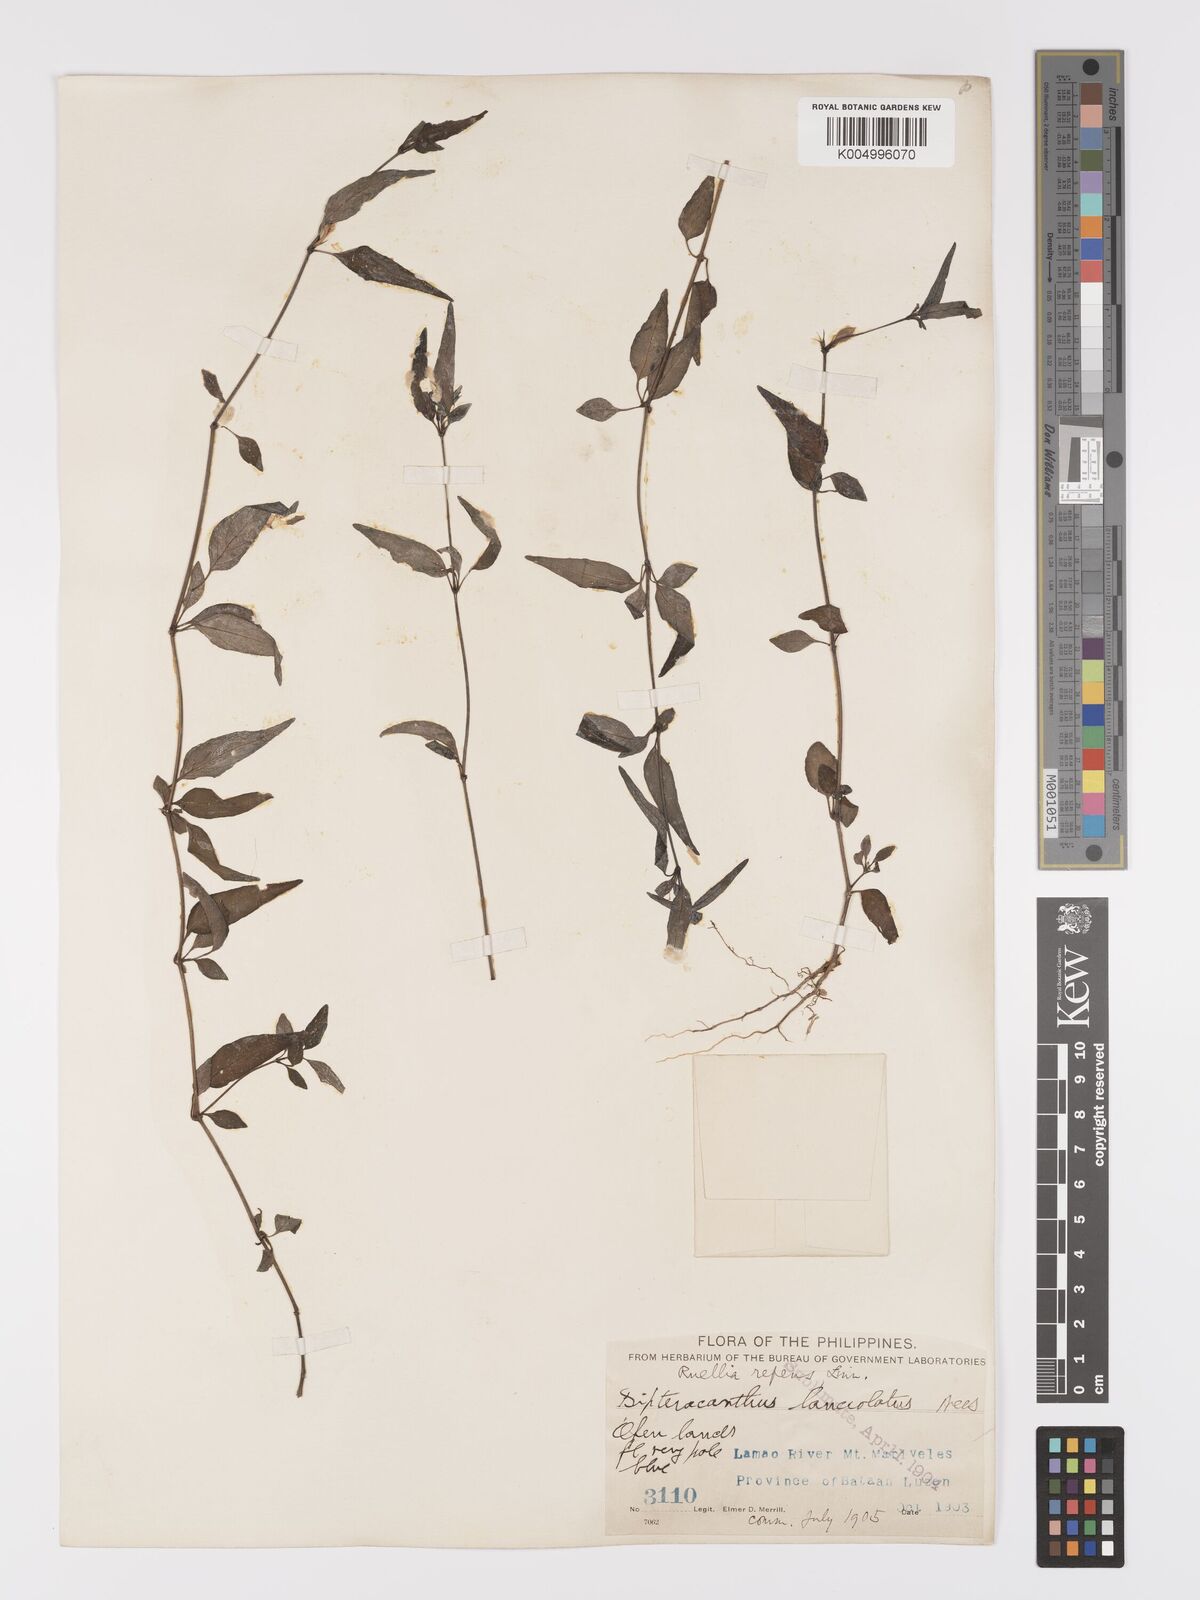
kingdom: Plantae
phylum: Tracheophyta
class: Magnoliopsida
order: Lamiales
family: Acanthaceae
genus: Ruellia
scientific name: Ruellia
